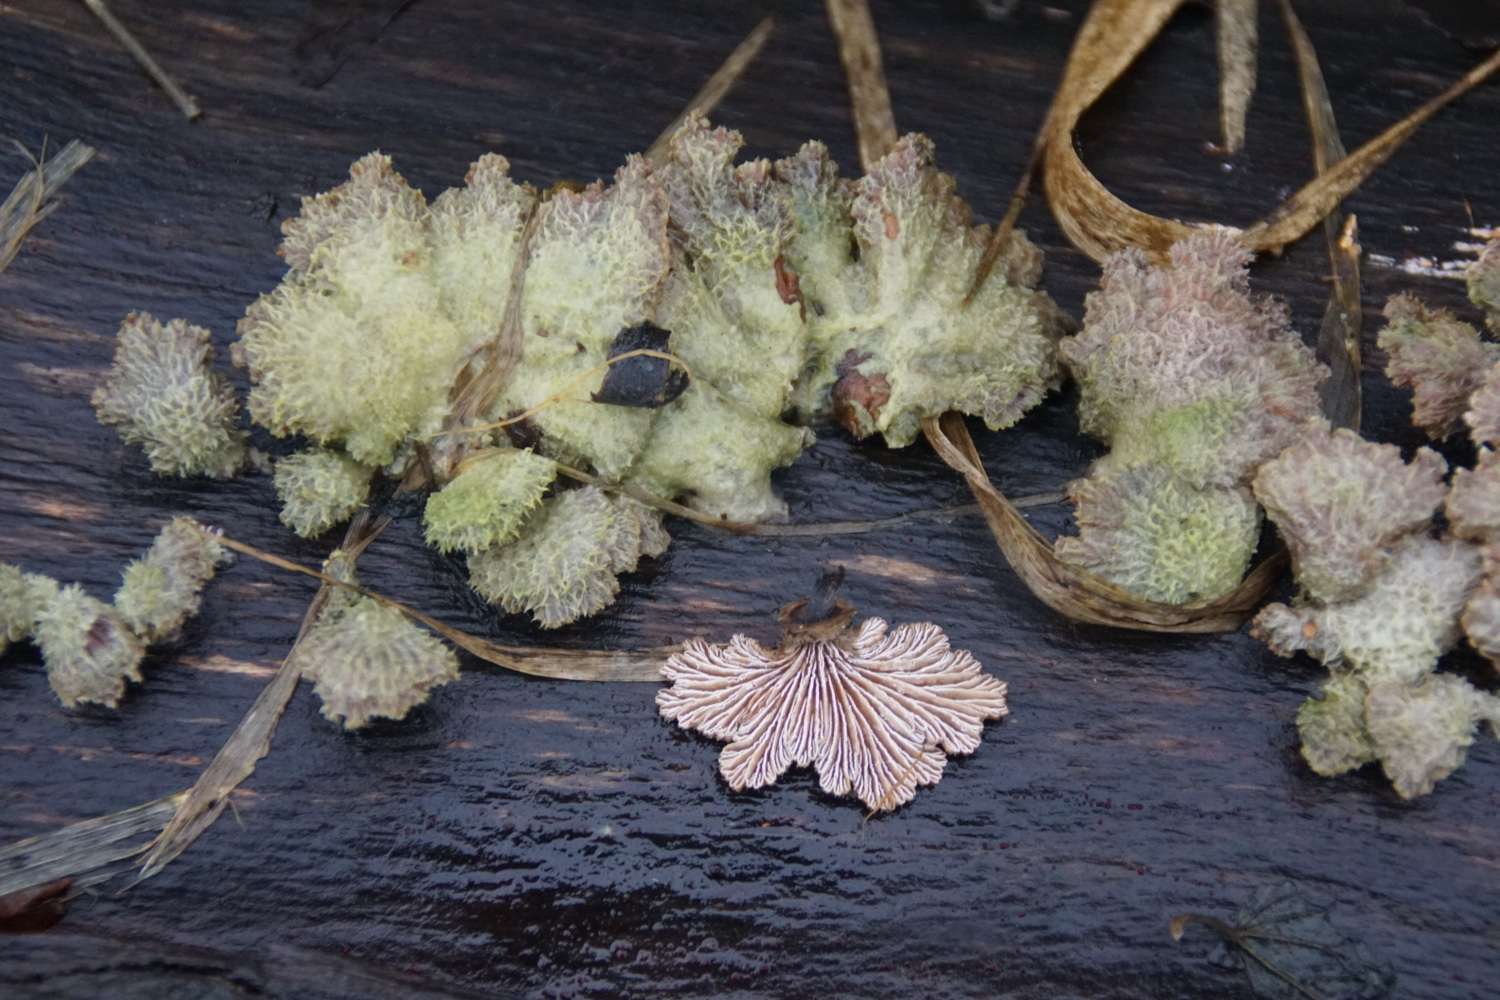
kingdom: Fungi
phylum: Basidiomycota
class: Agaricomycetes
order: Agaricales
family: Schizophyllaceae
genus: Schizophyllum
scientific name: Schizophyllum commune
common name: kløvblad
